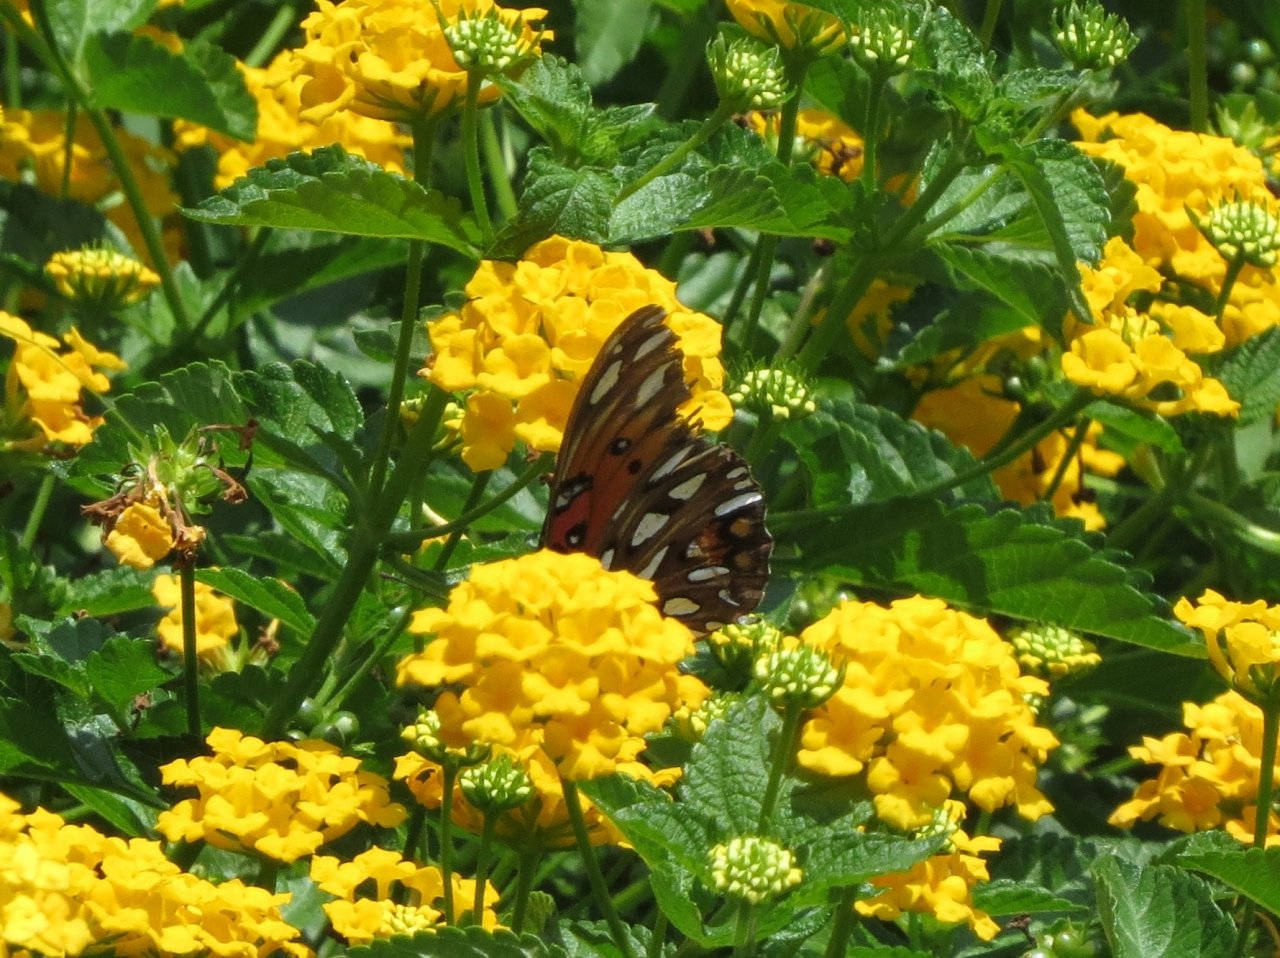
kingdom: Animalia
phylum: Arthropoda
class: Insecta
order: Lepidoptera
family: Nymphalidae
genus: Dione
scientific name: Dione vanillae
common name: Gulf Fritillary
